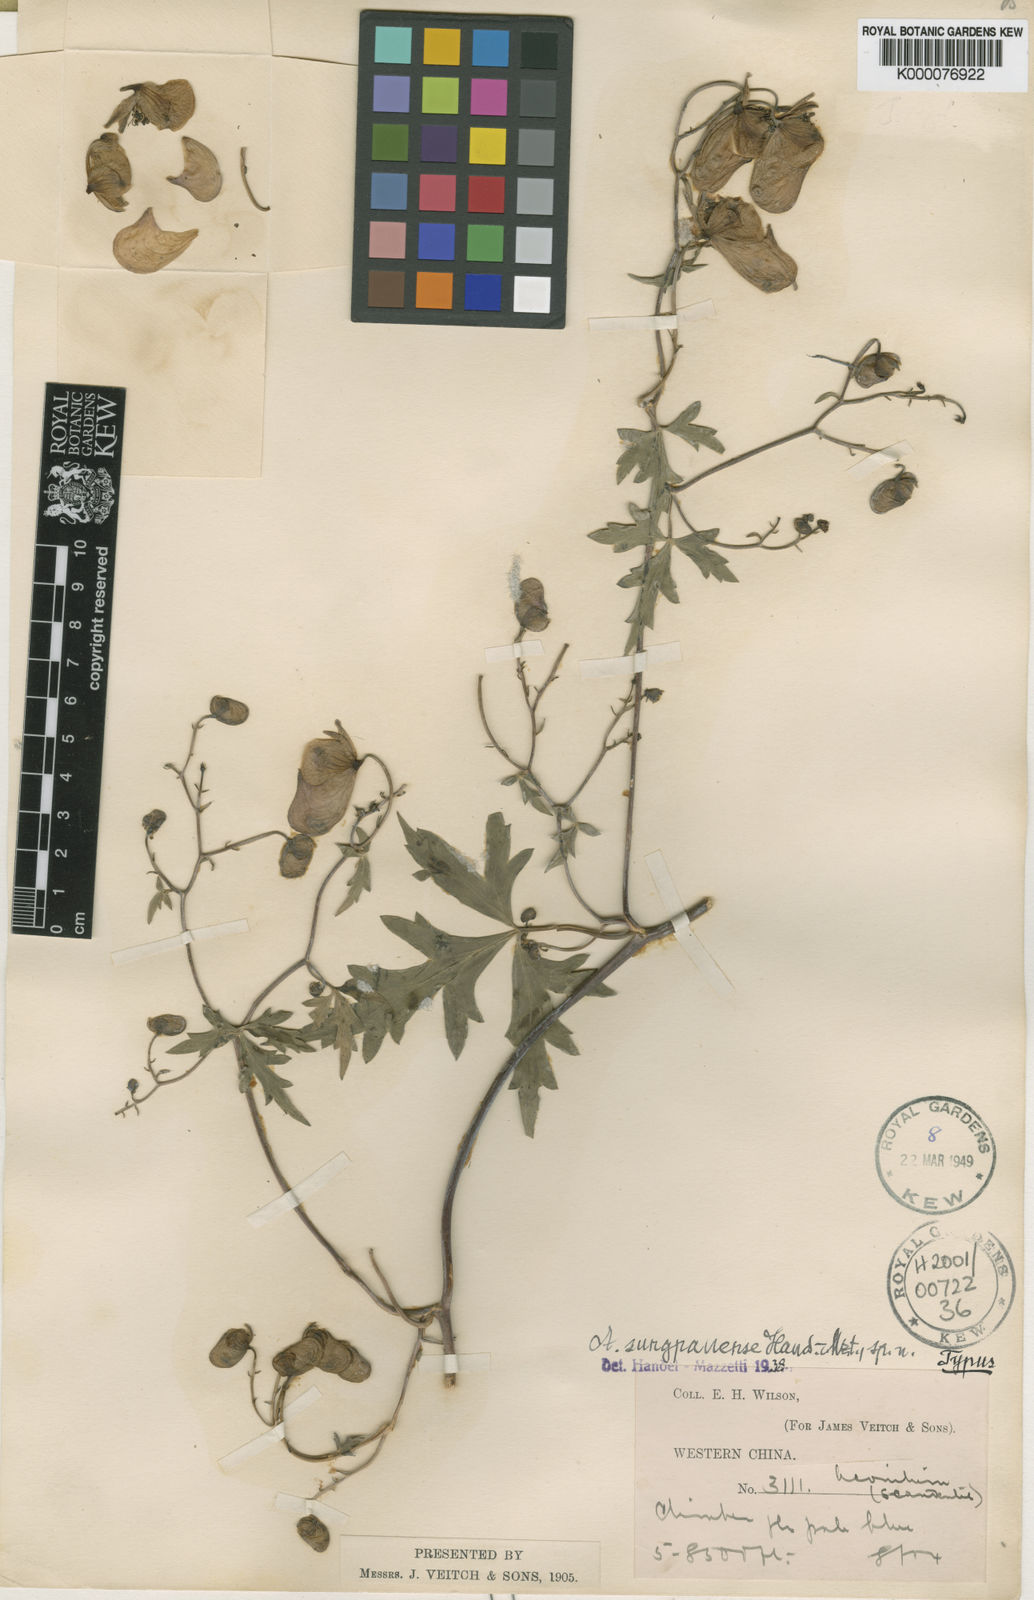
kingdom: Plantae
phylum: Tracheophyta
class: Magnoliopsida
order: Ranunculales
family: Ranunculaceae
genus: Aconitum
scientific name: Aconitum henryi
